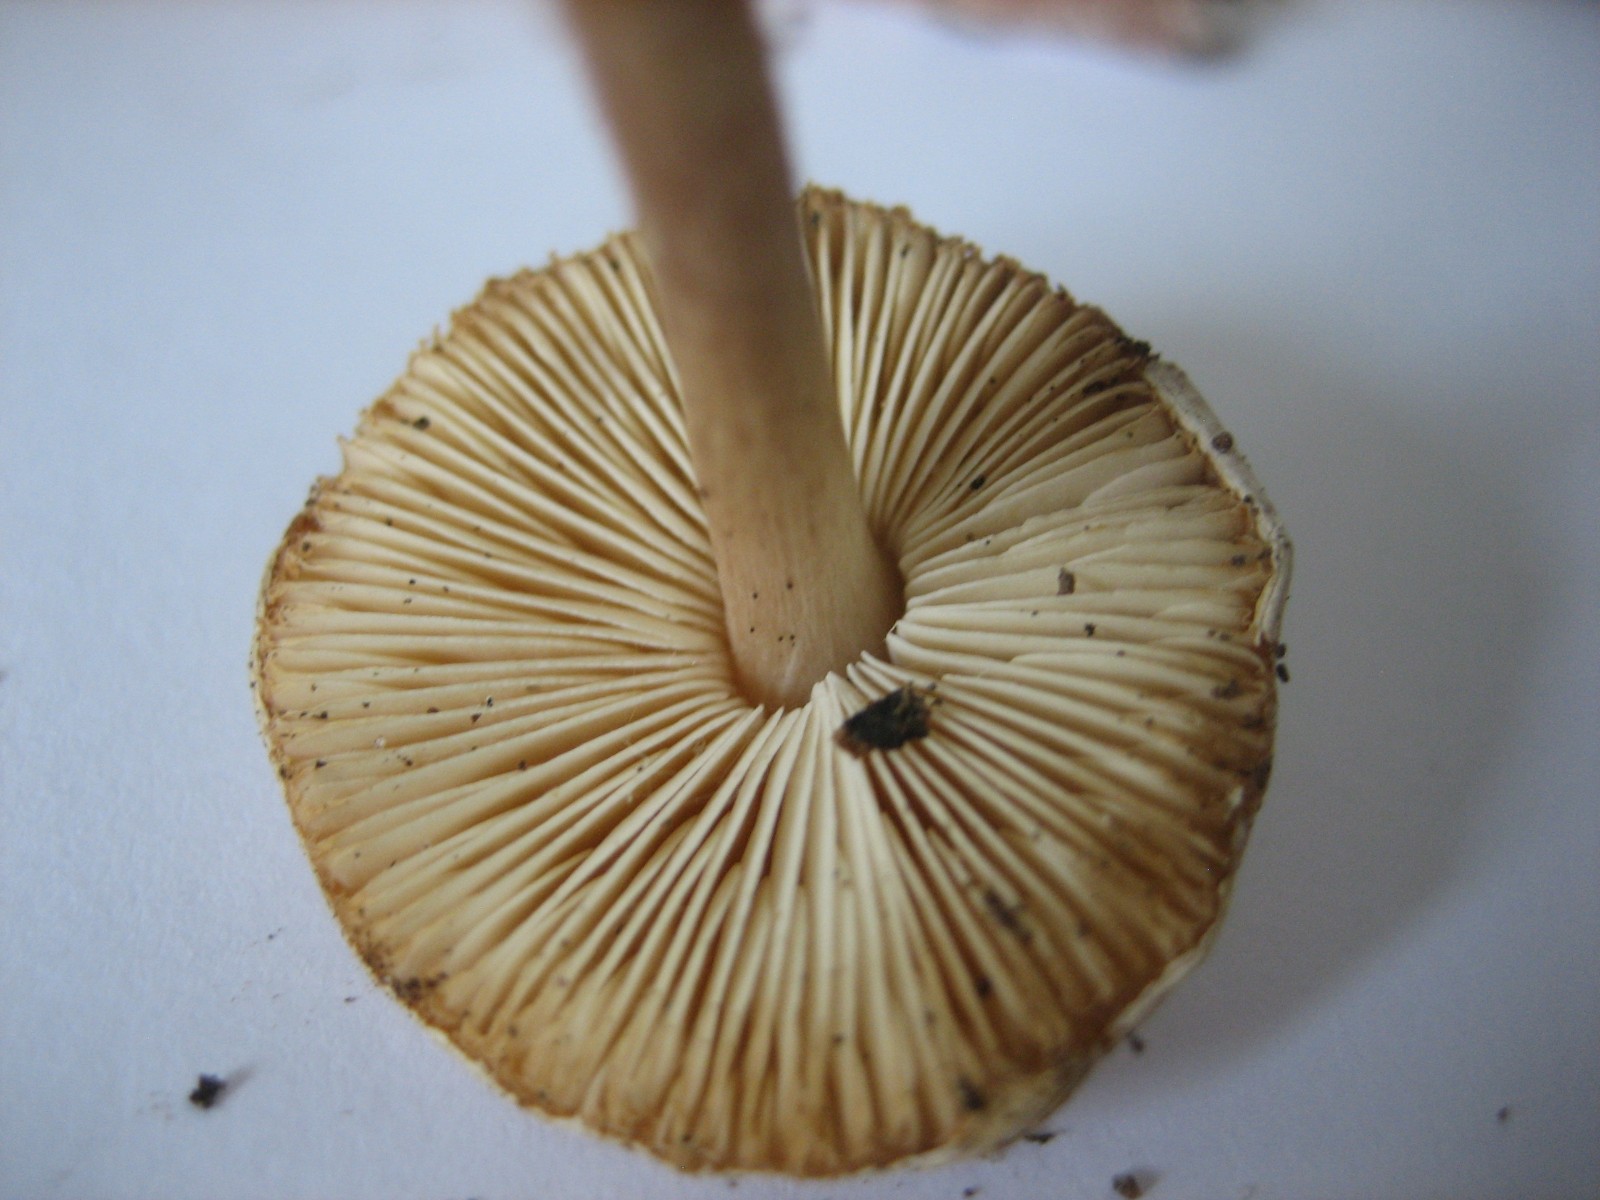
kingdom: Fungi
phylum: Basidiomycota
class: Agaricomycetes
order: Agaricales
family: Agaricaceae
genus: Lepiota
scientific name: Lepiota cristata
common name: stinkende parasolhat
